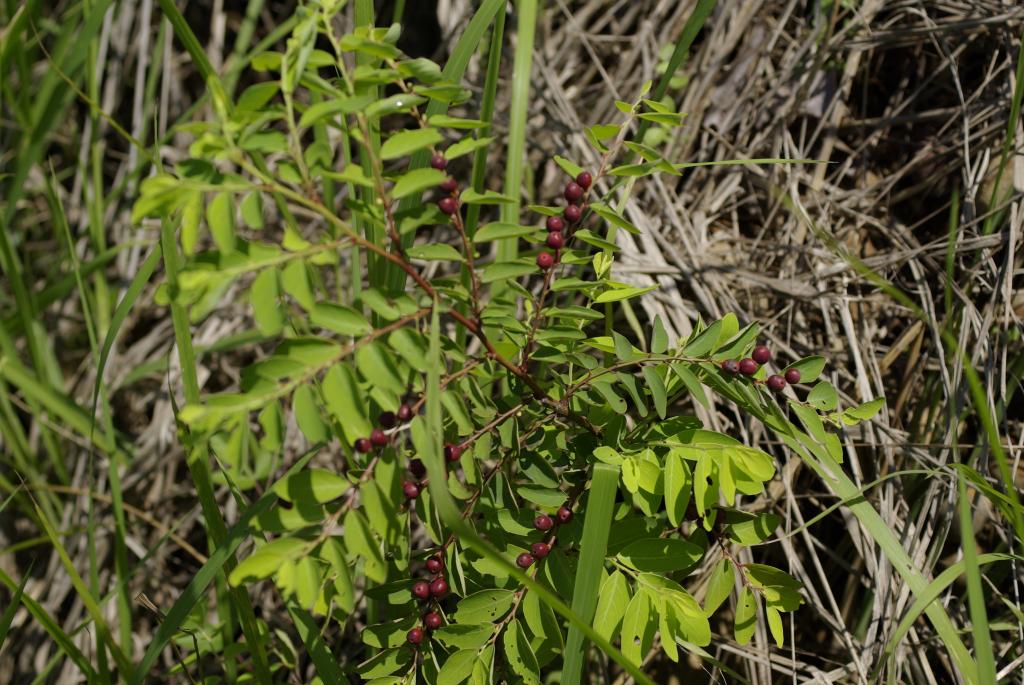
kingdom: Plantae
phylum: Tracheophyta
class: Magnoliopsida
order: Malpighiales
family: Phyllanthaceae
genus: Breynia
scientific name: Breynia officinalis
